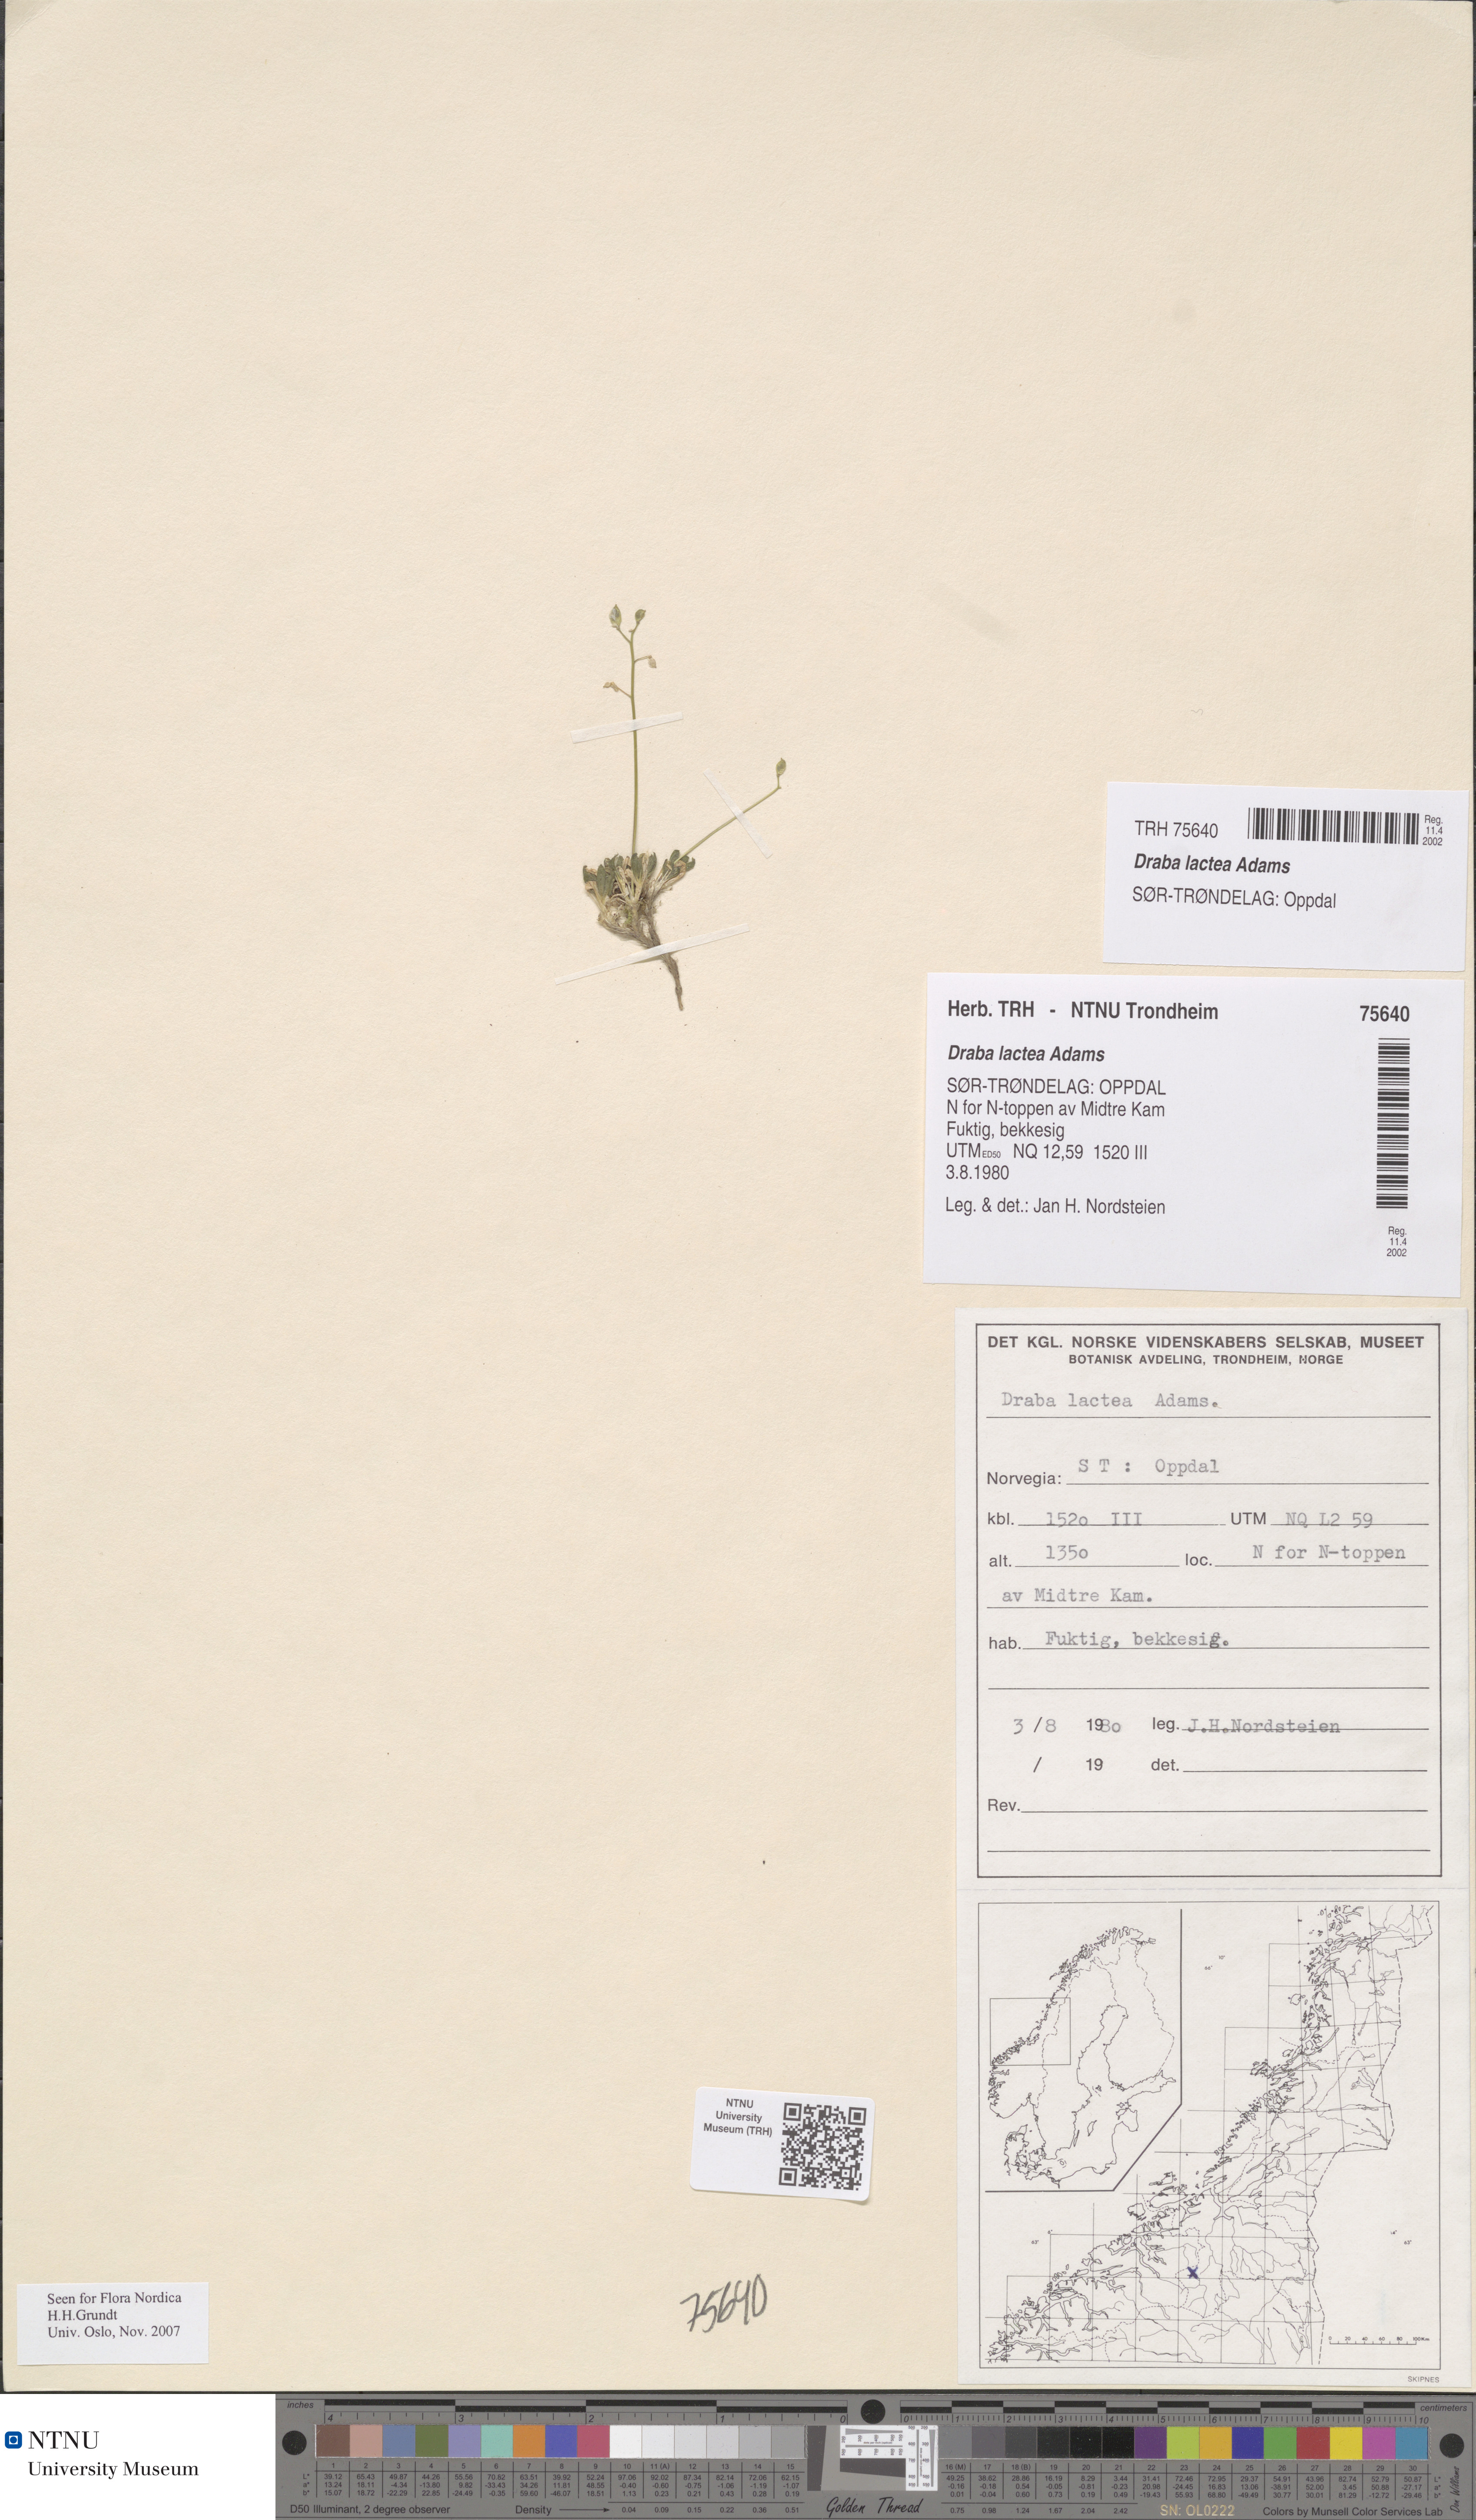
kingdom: Plantae
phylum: Tracheophyta
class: Magnoliopsida
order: Brassicales
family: Brassicaceae
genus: Draba
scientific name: Draba lactea
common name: Milky draba
